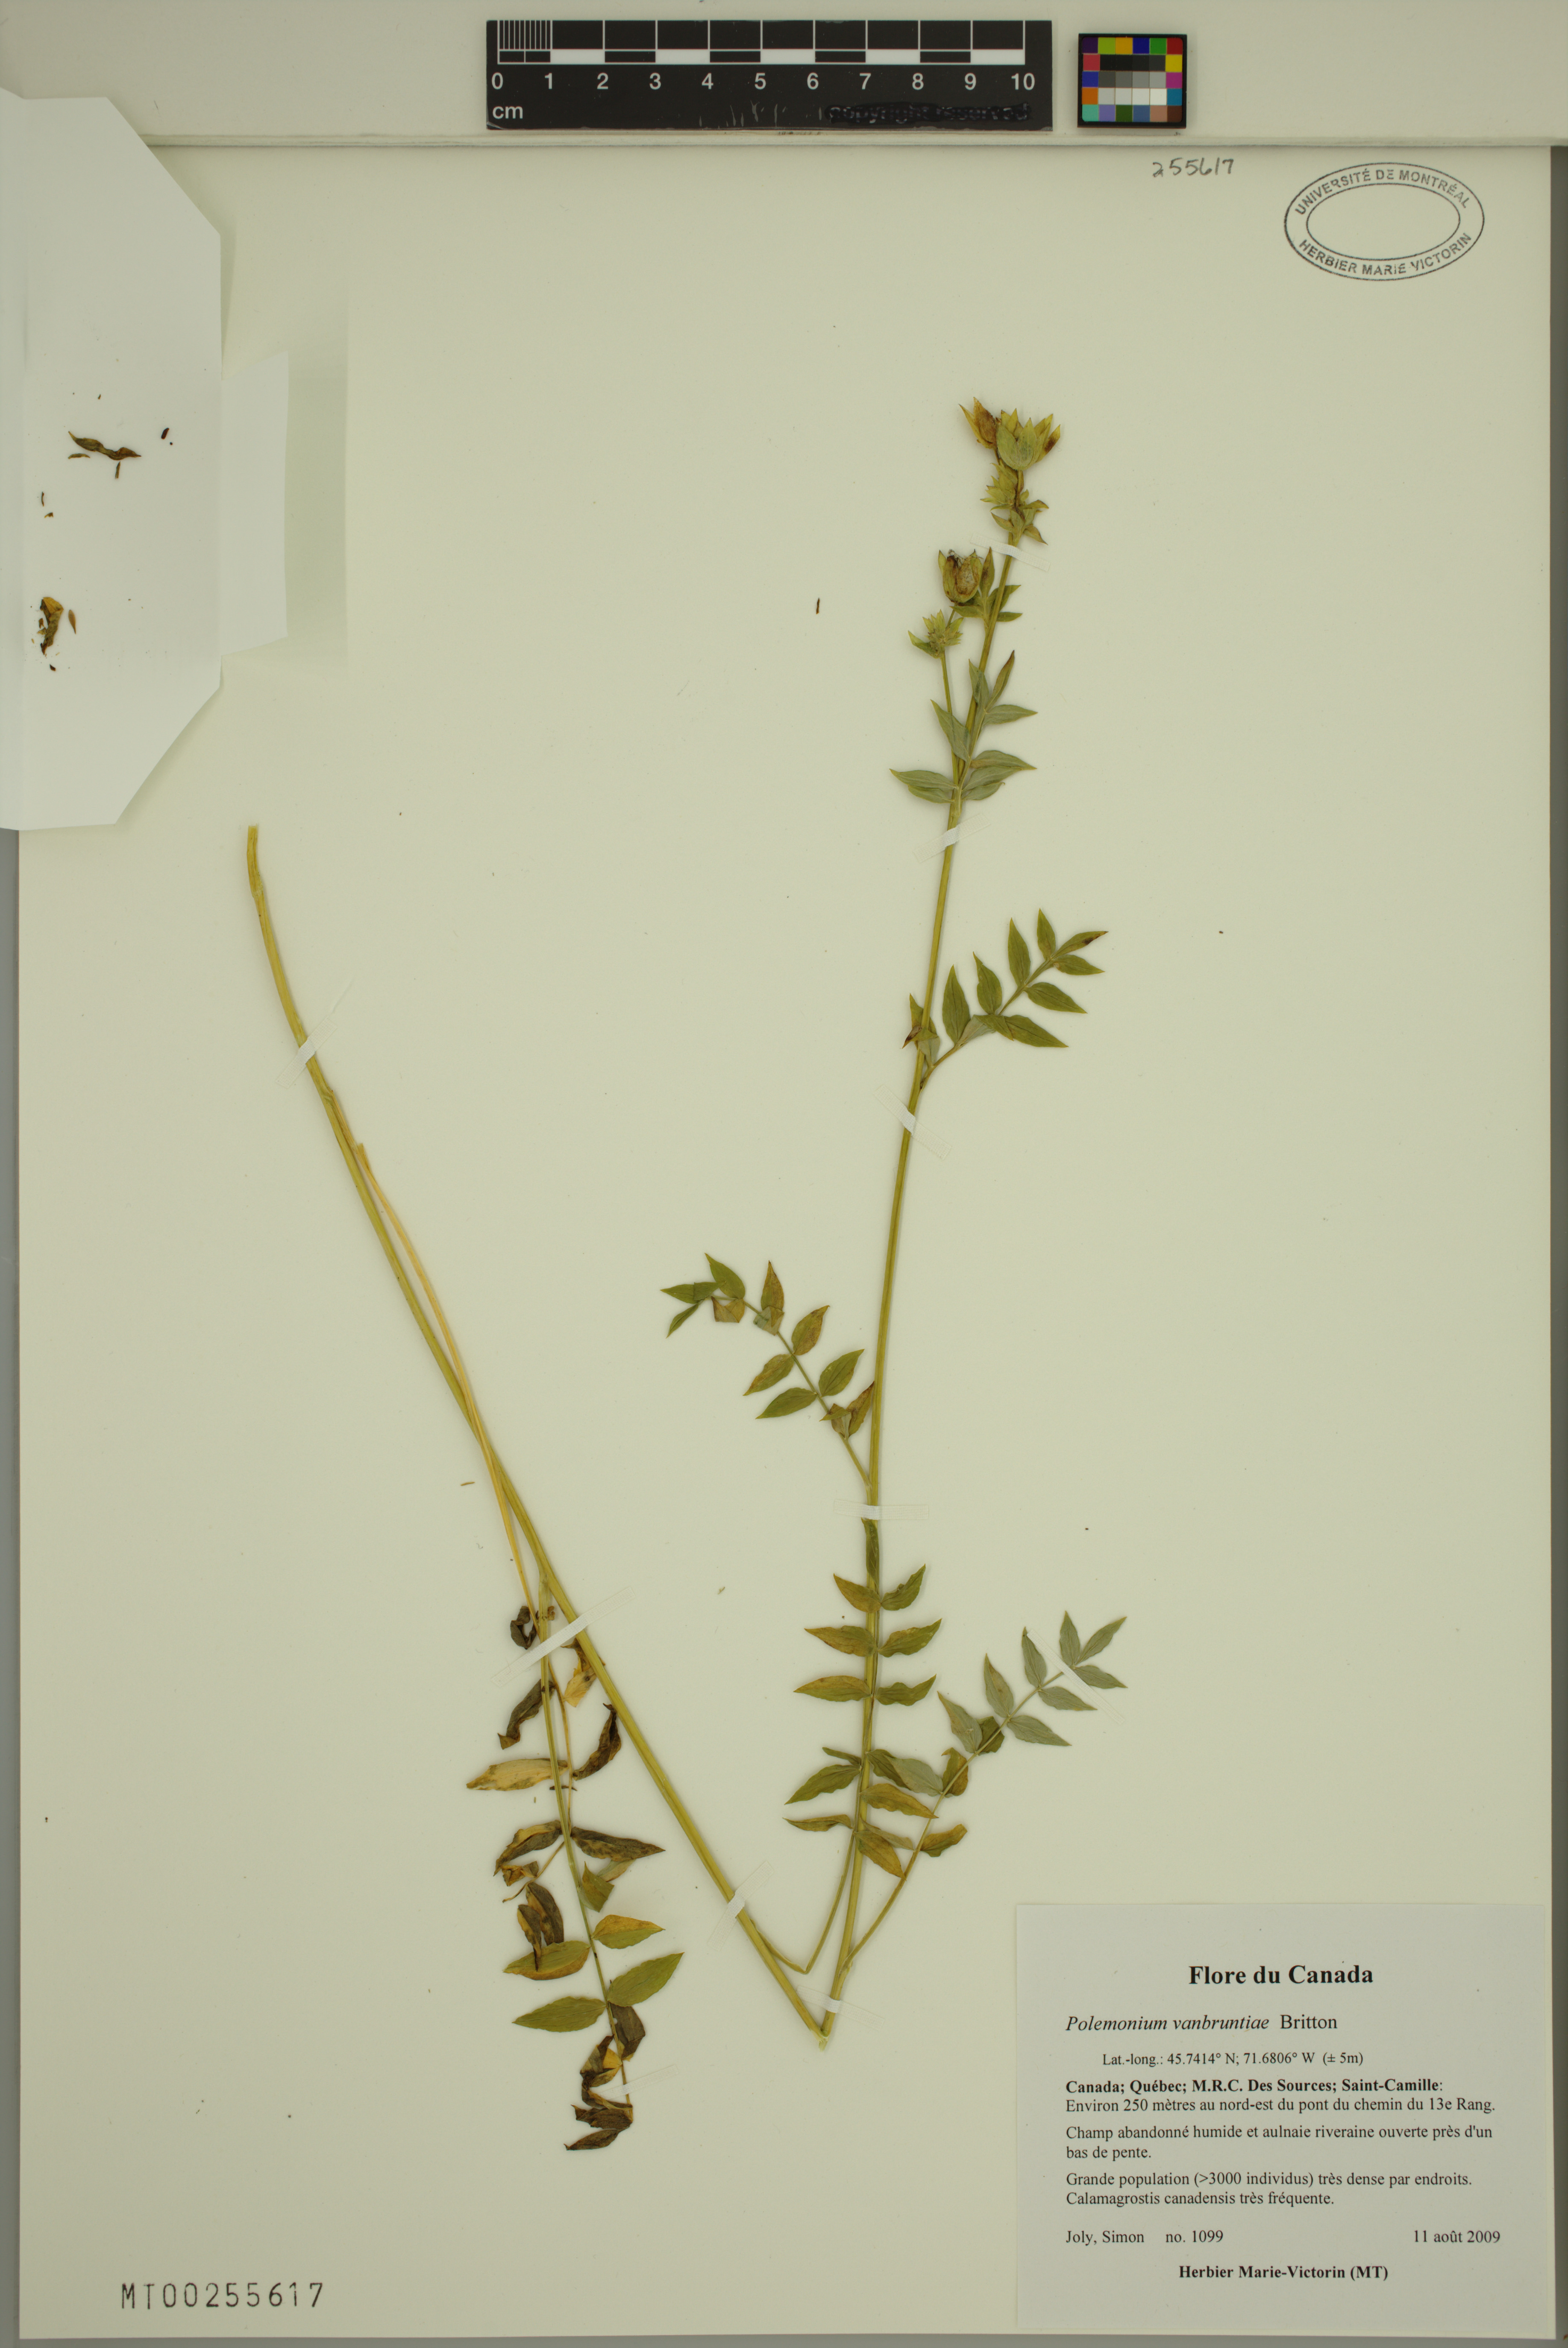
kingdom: Plantae
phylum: Tracheophyta
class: Magnoliopsida
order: Ericales
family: Polemoniaceae
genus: Polemonium
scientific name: Polemonium vanbruntiae
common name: Bog jacob's-ladder
